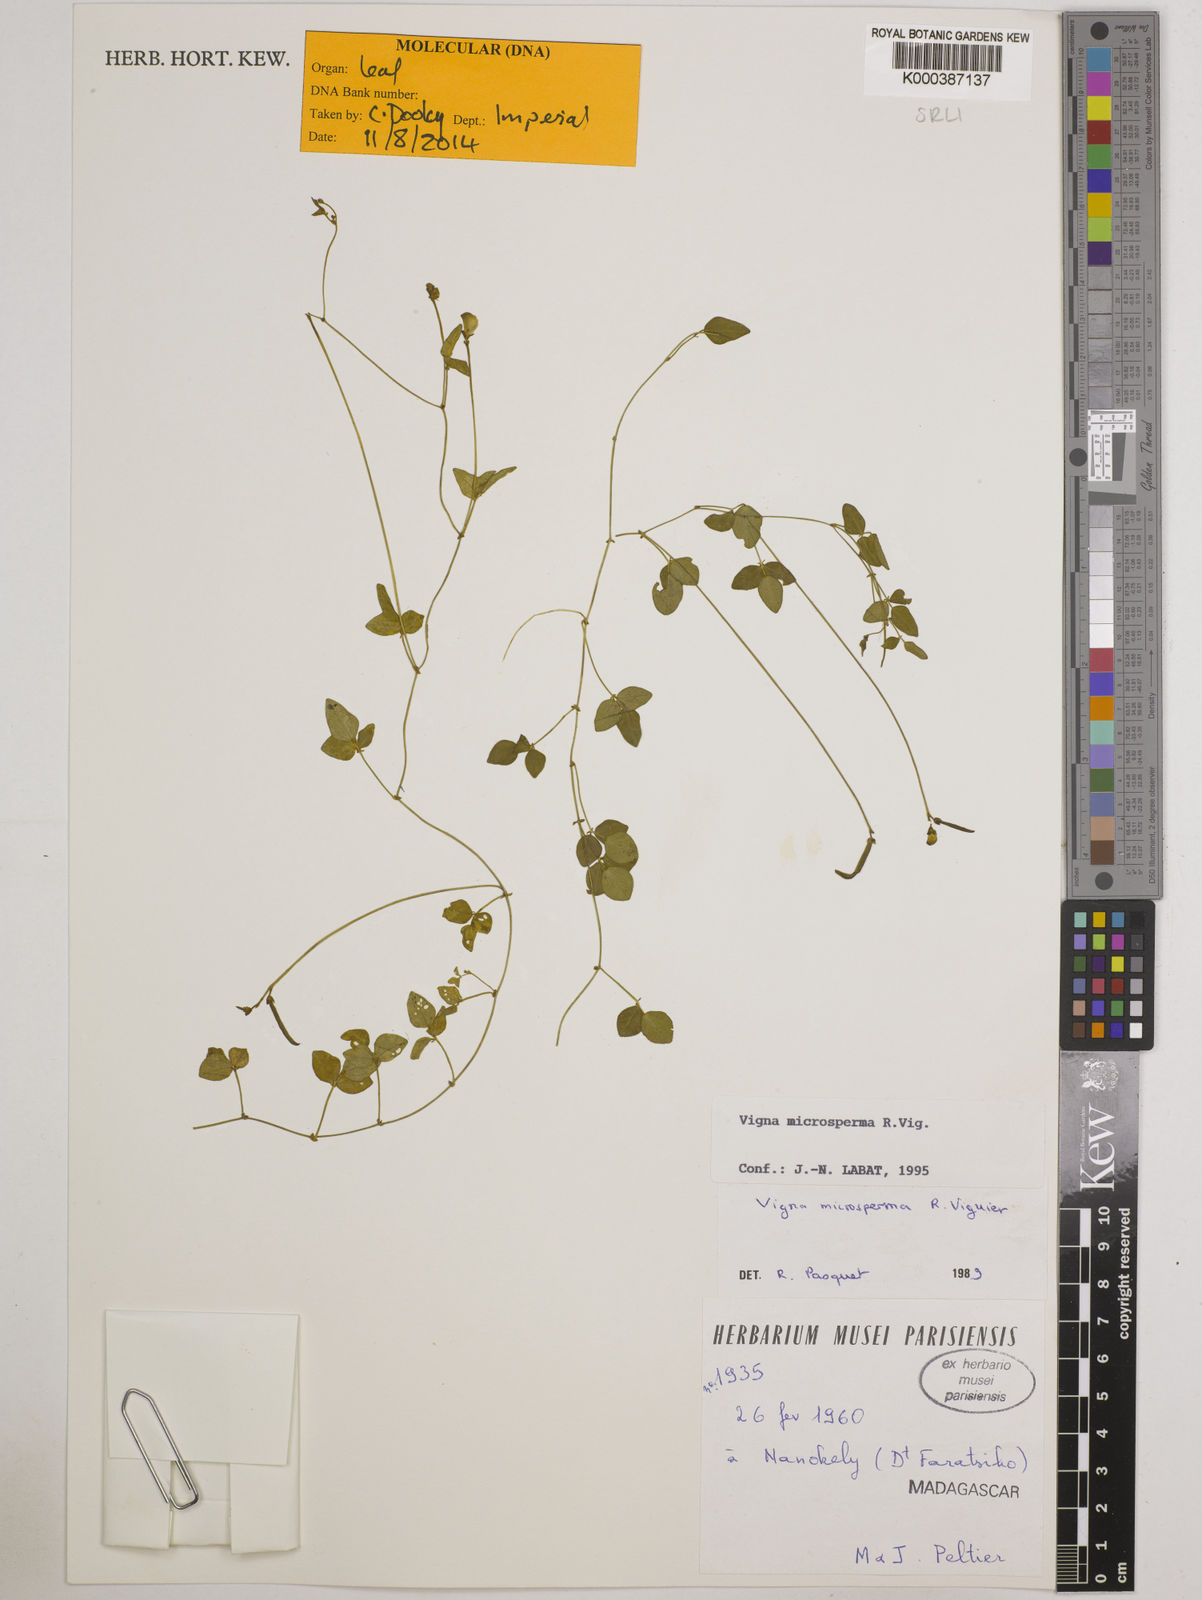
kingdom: Plantae
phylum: Tracheophyta
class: Magnoliopsida
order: Fabales
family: Fabaceae
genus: Vigna
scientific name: Vigna microsperma
